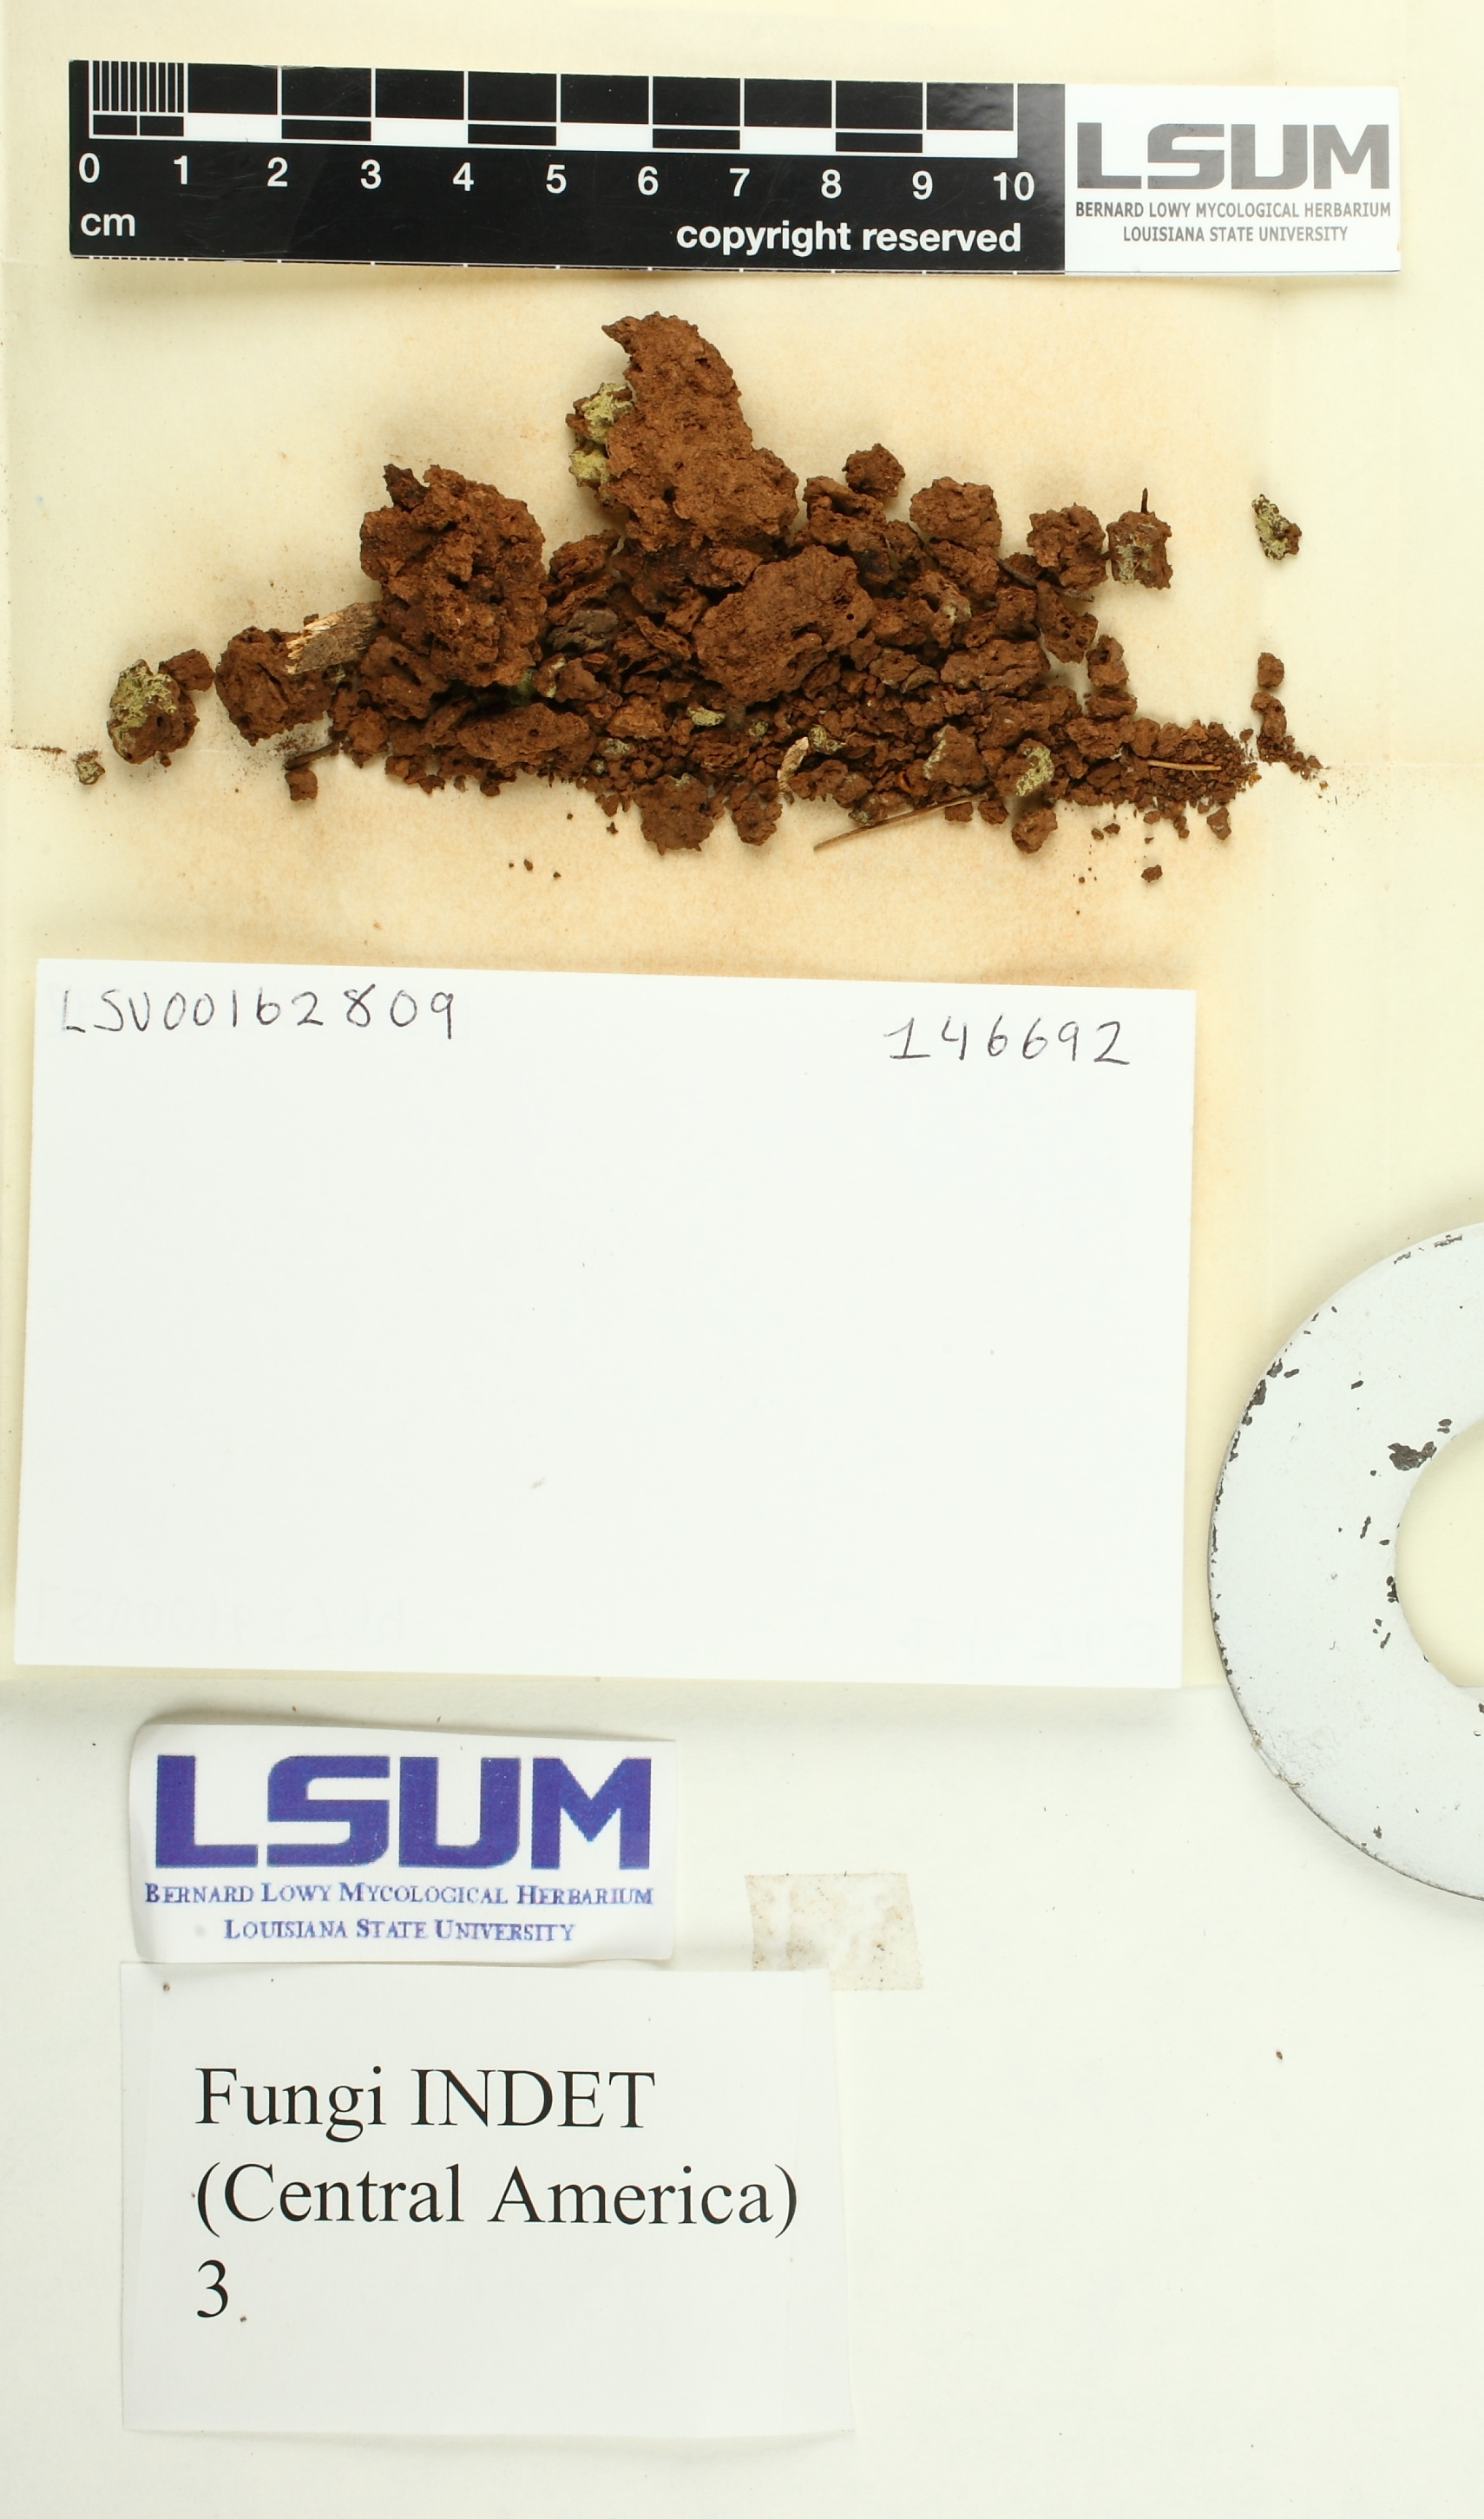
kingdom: Fungi
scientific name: Fungi
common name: Fungi
